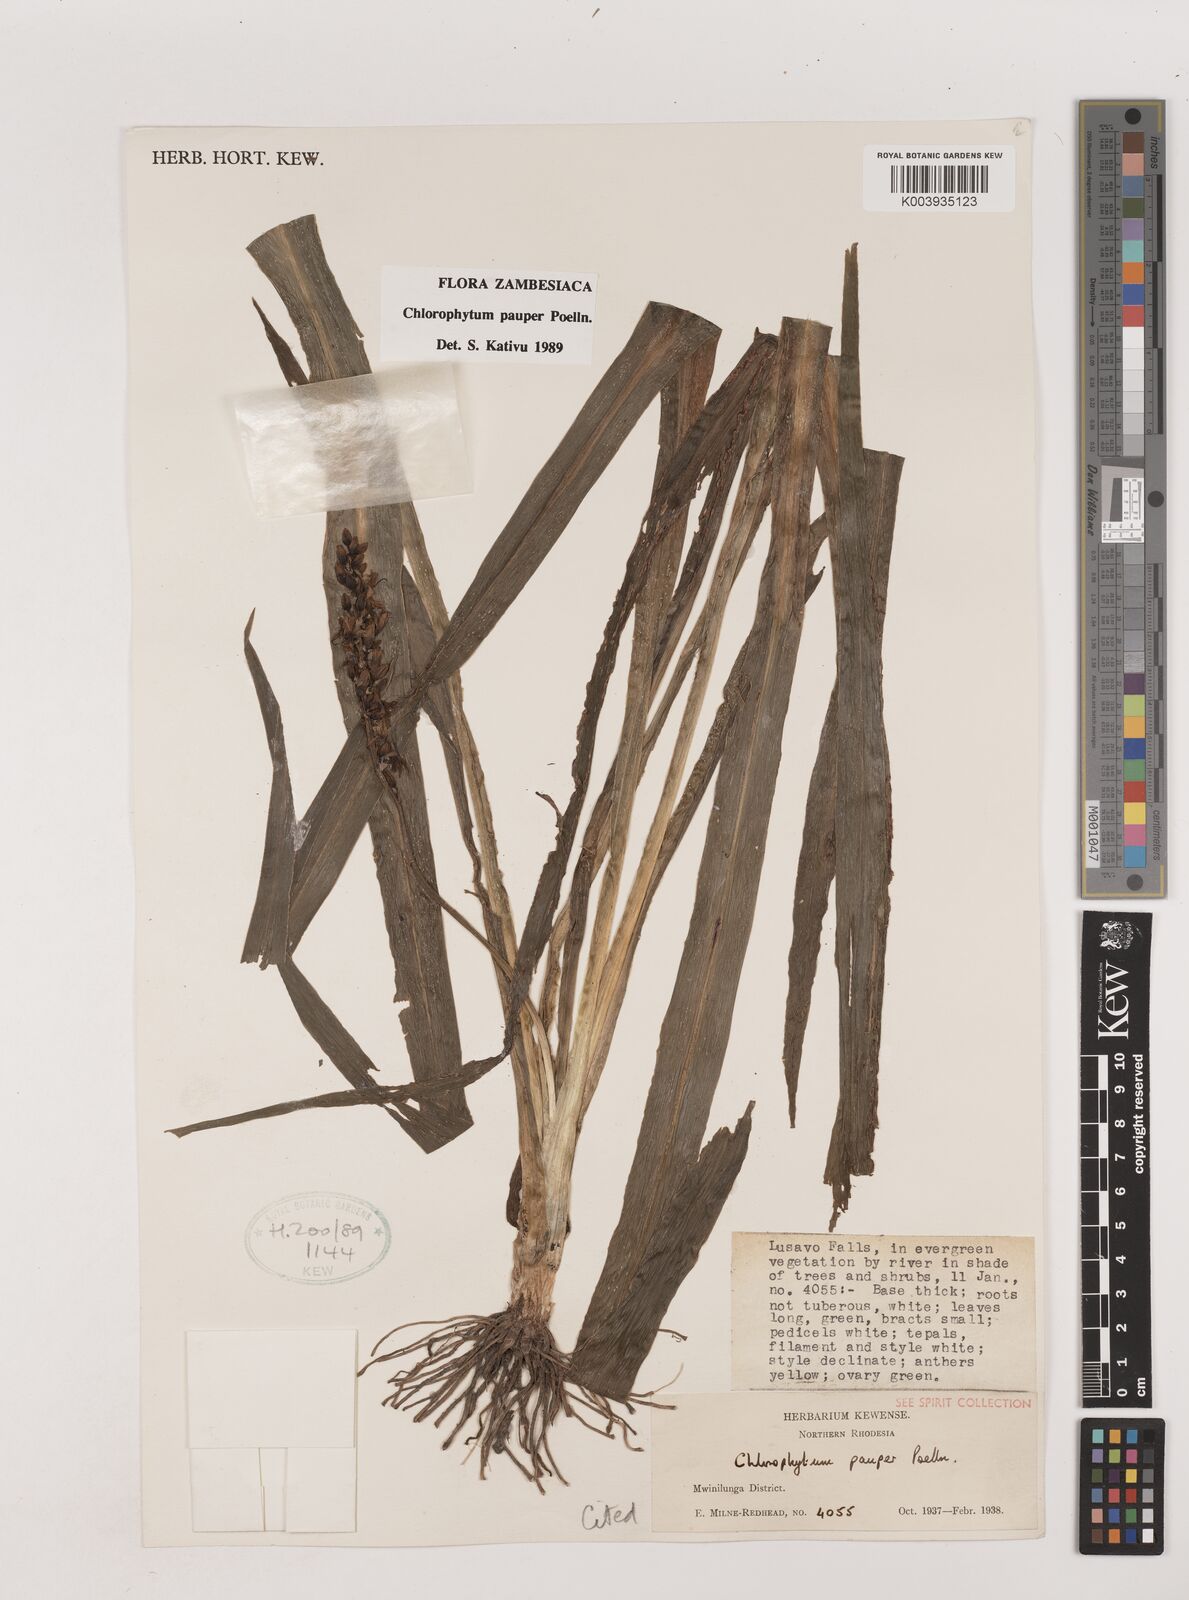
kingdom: Plantae
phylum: Tracheophyta
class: Liliopsida
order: Asparagales
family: Asparagaceae
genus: Chlorophytum
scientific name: Chlorophytum pauper
